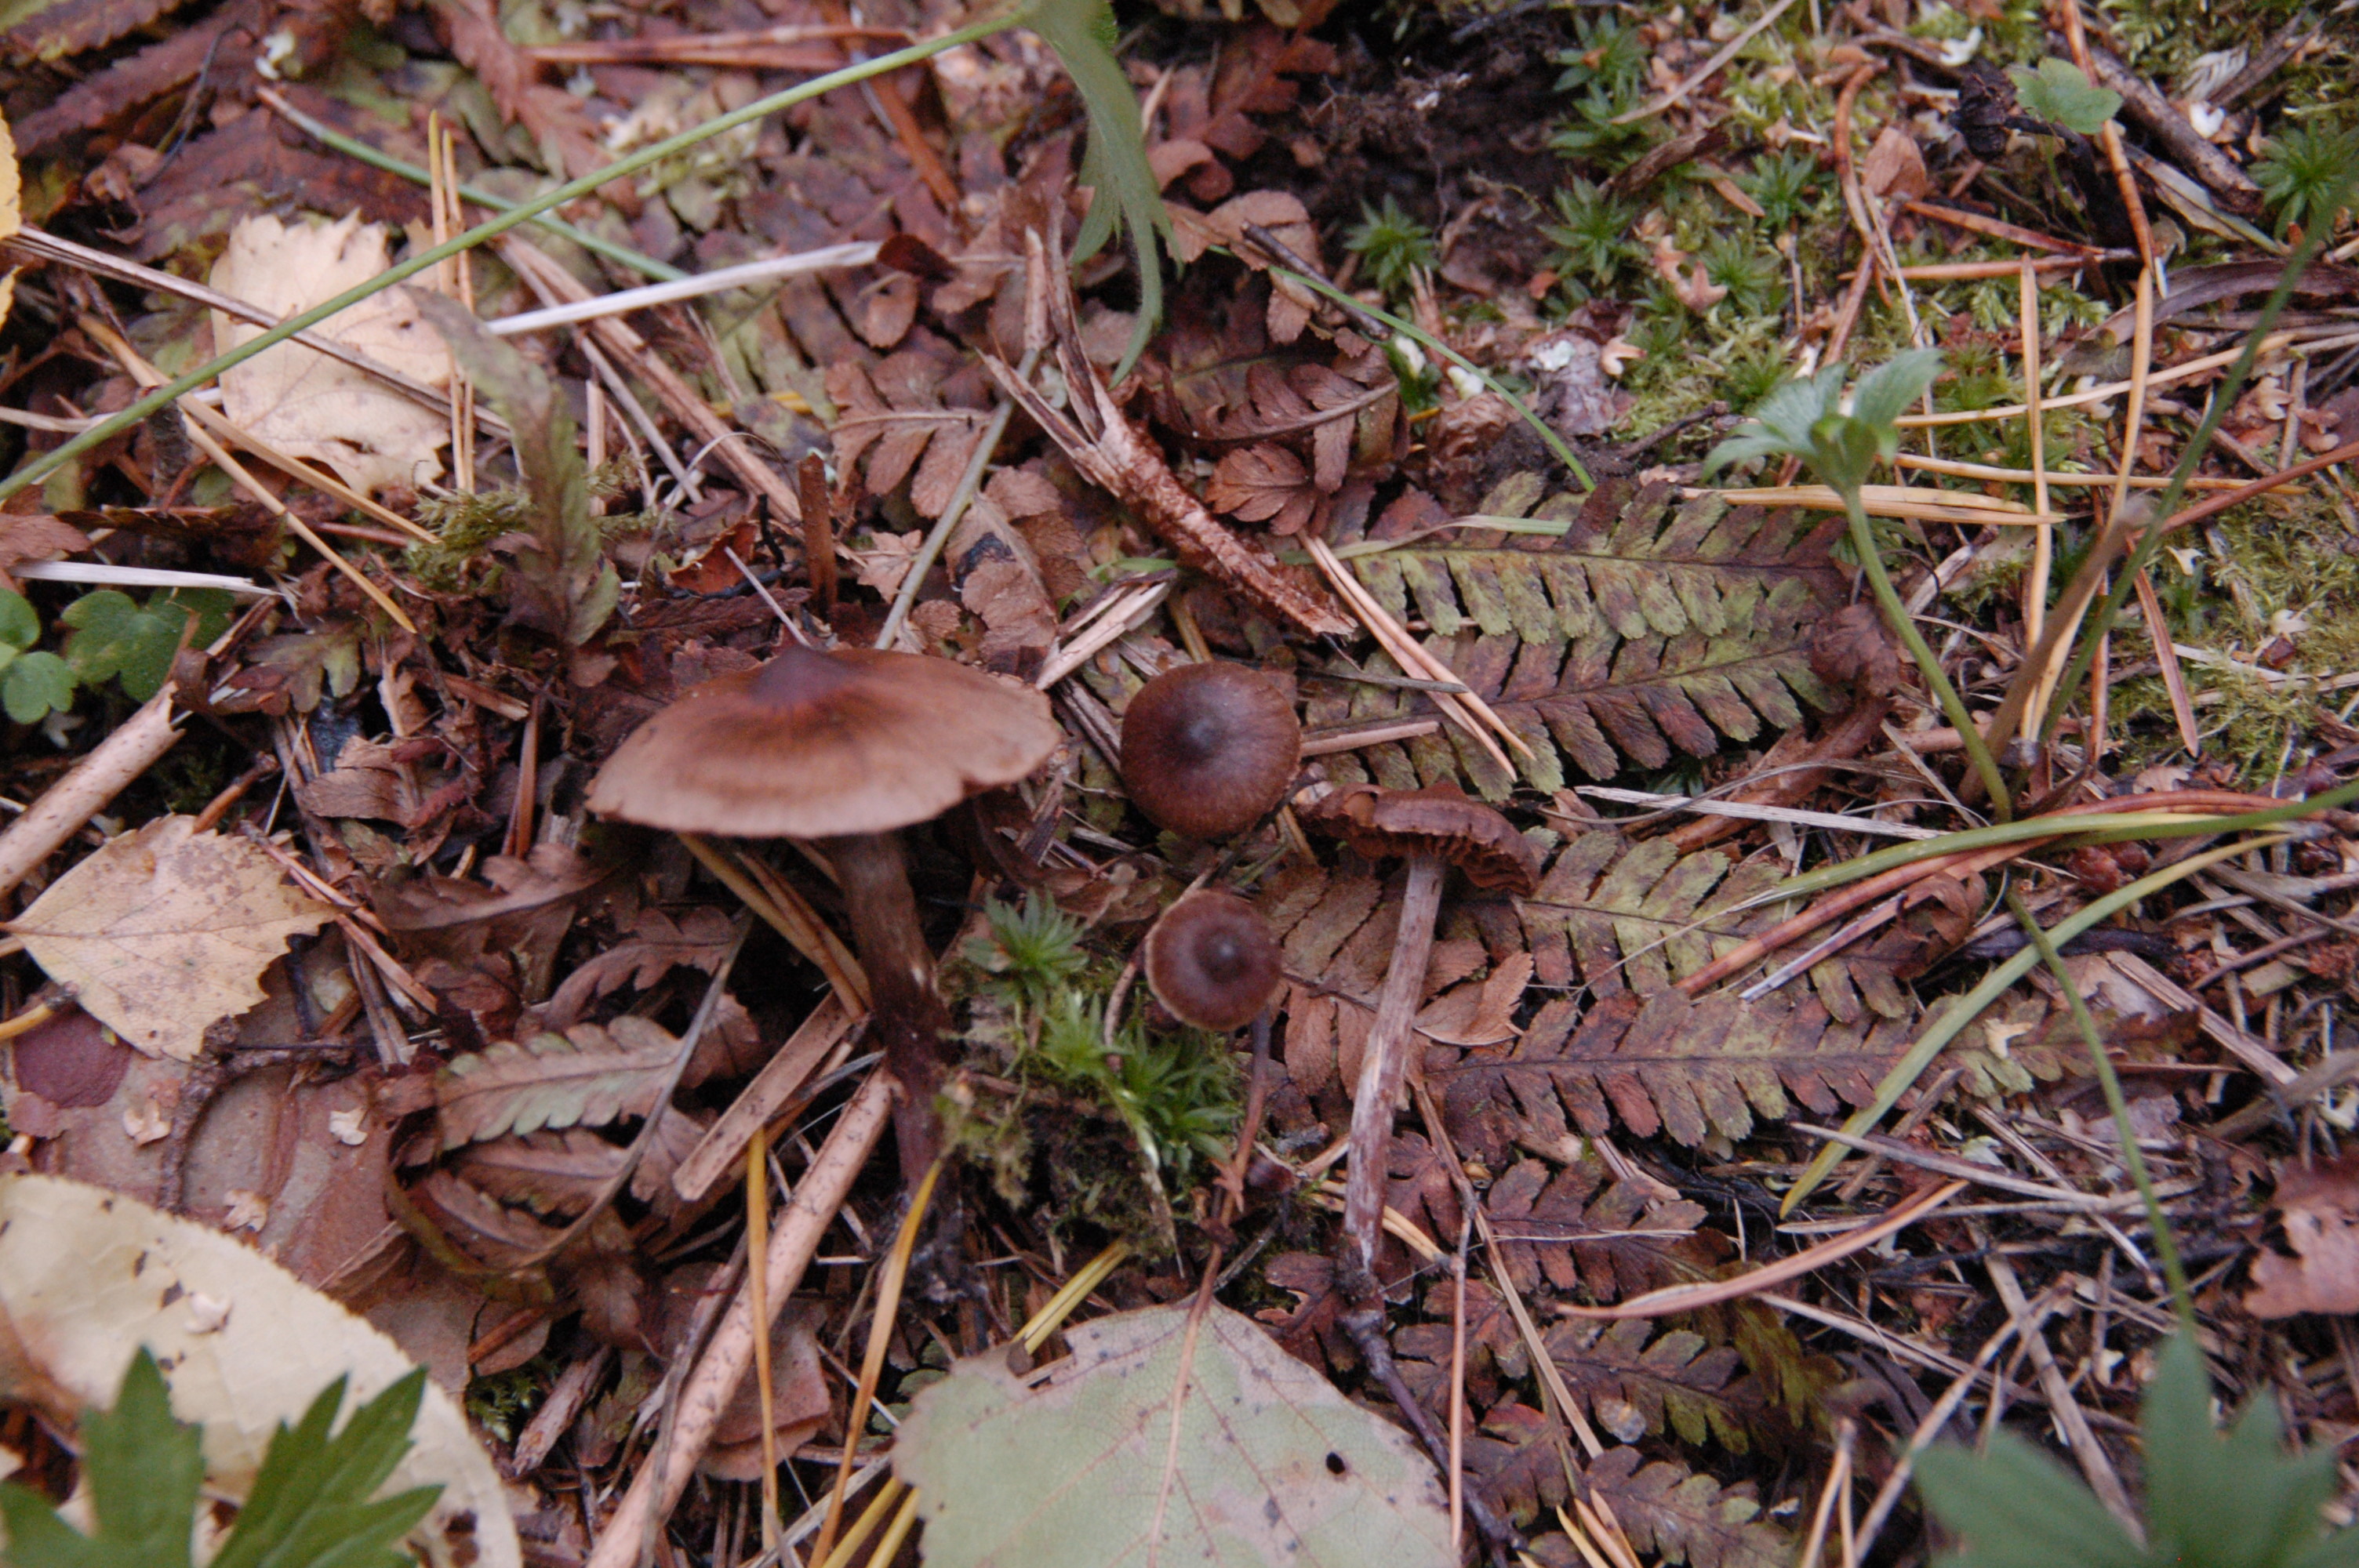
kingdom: Fungi
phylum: Basidiomycota
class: Agaricomycetes
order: Agaricales
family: Cortinariaceae
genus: Cortinarius
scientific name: Cortinarius umbrinolens
